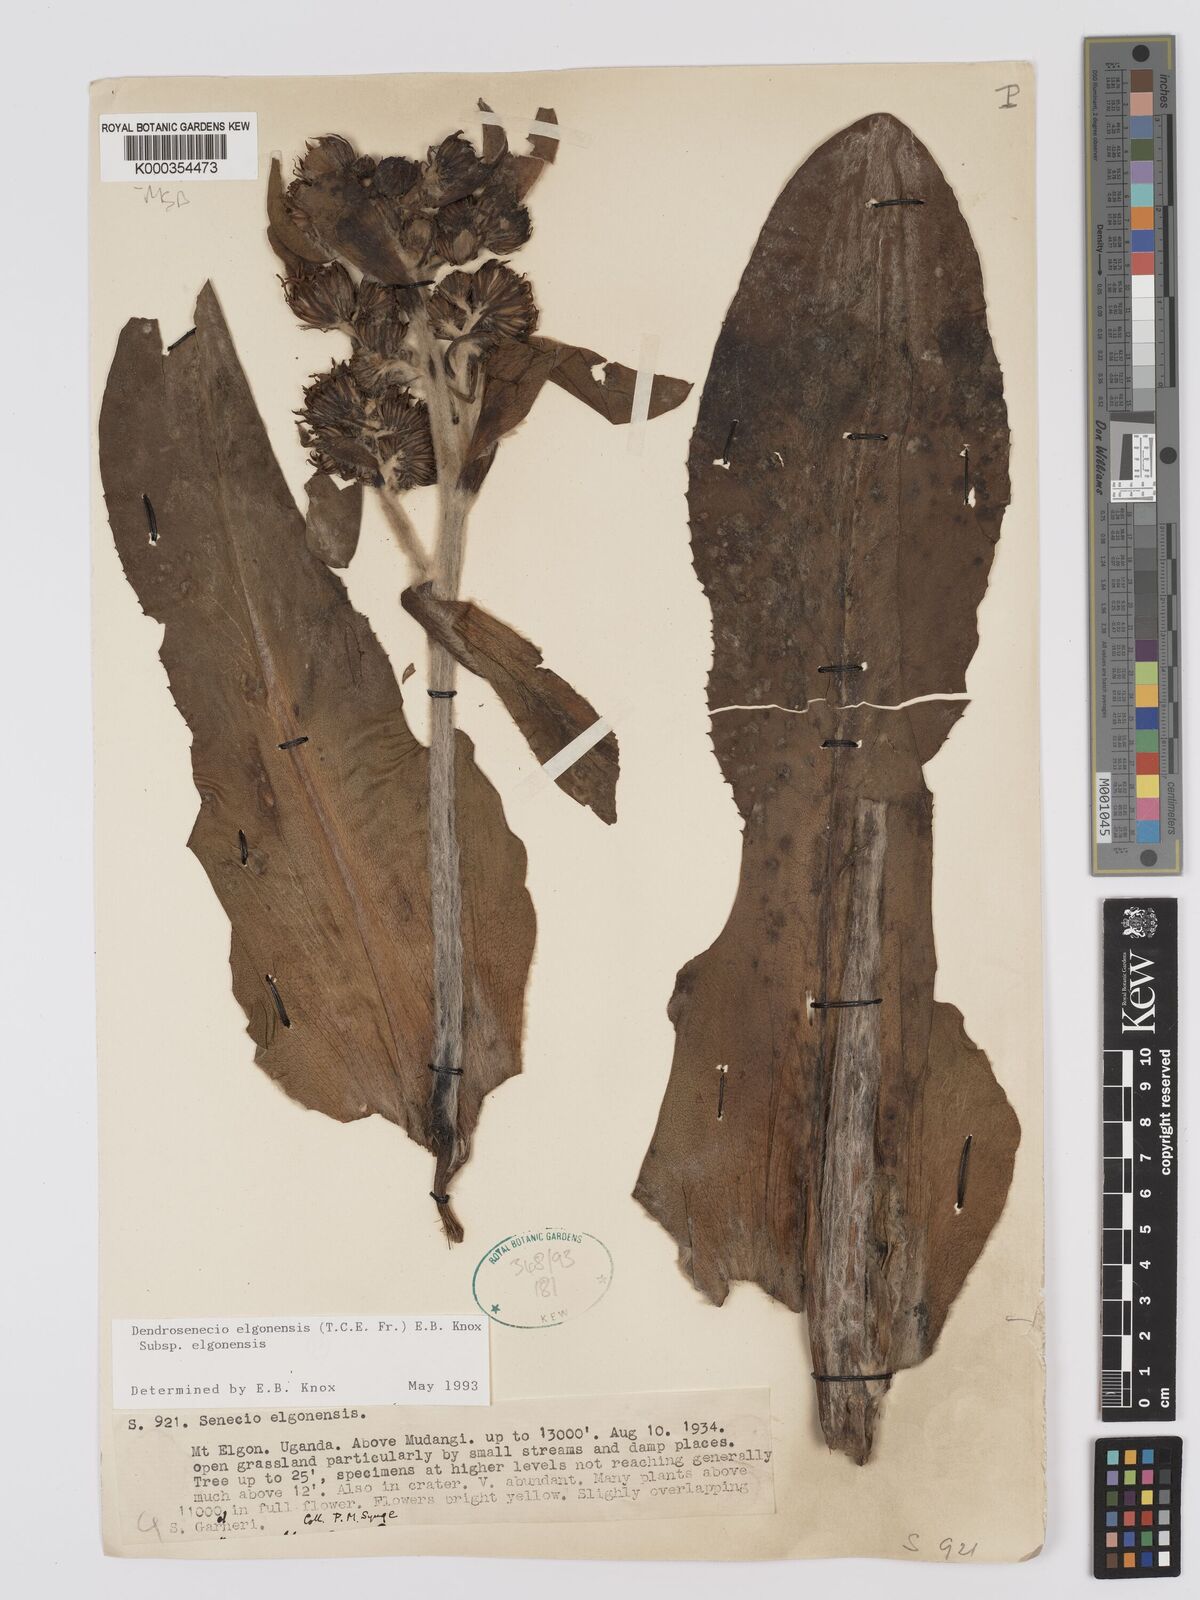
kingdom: Plantae
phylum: Tracheophyta
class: Magnoliopsida
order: Asterales
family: Asteraceae
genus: Dendrosenecio
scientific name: Dendrosenecio elgonensis
